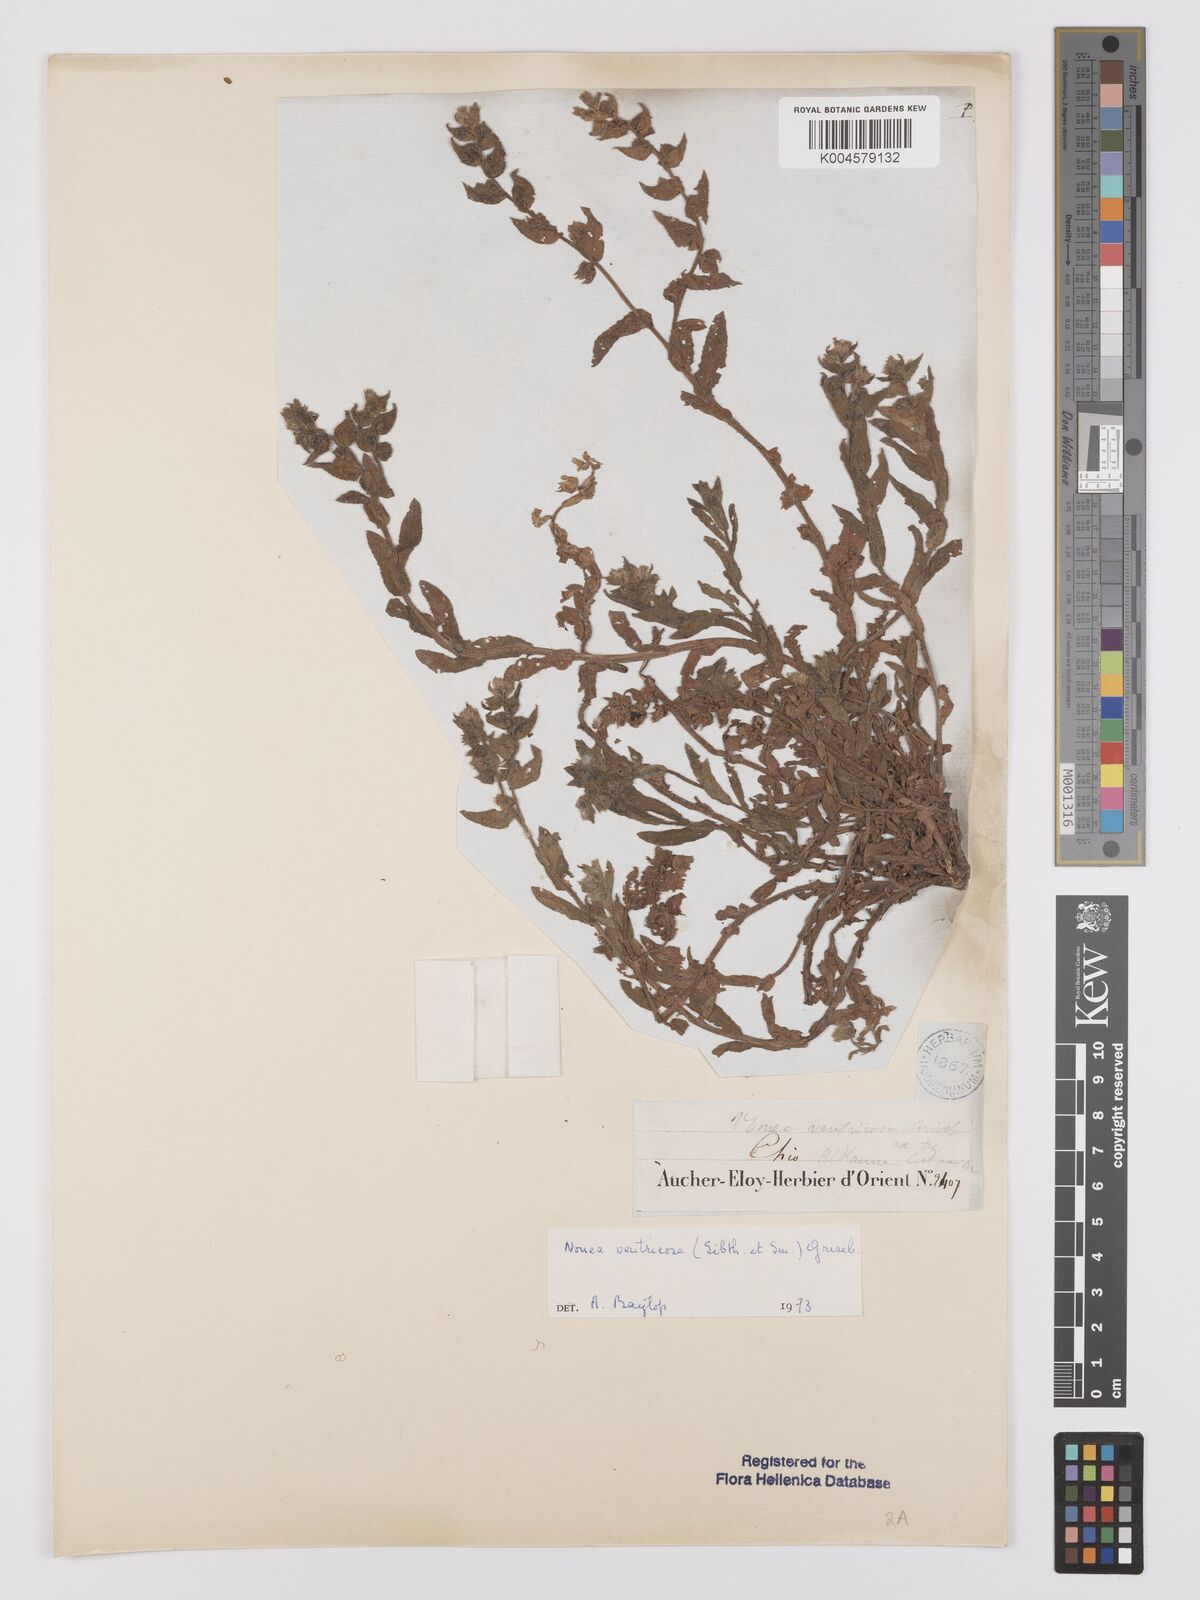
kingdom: Plantae
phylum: Tracheophyta
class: Magnoliopsida
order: Boraginales
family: Boraginaceae
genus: Nonea
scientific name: Nonea echioides
